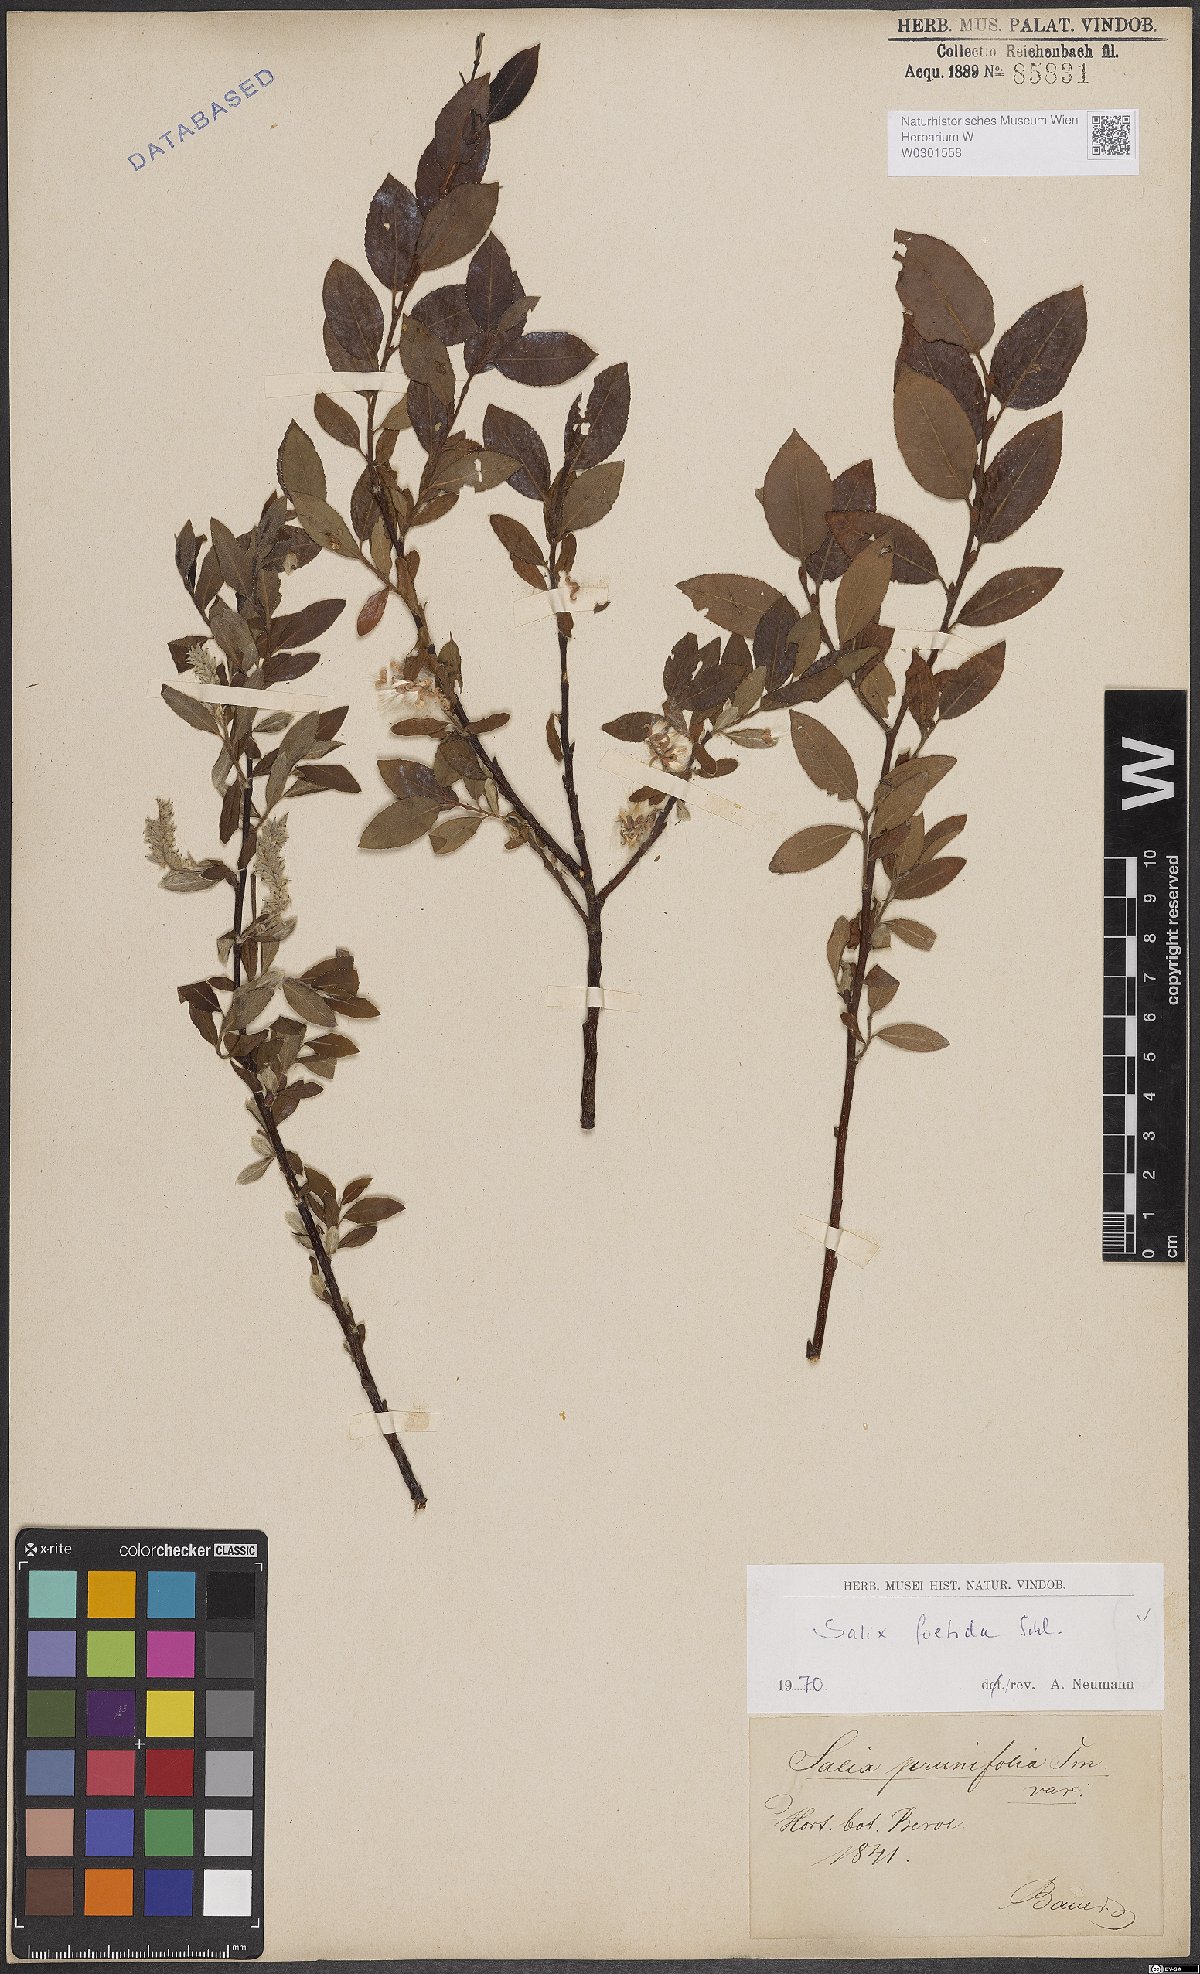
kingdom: Plantae
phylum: Tracheophyta
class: Magnoliopsida
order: Malpighiales
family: Salicaceae
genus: Salix
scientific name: Salix foetida
